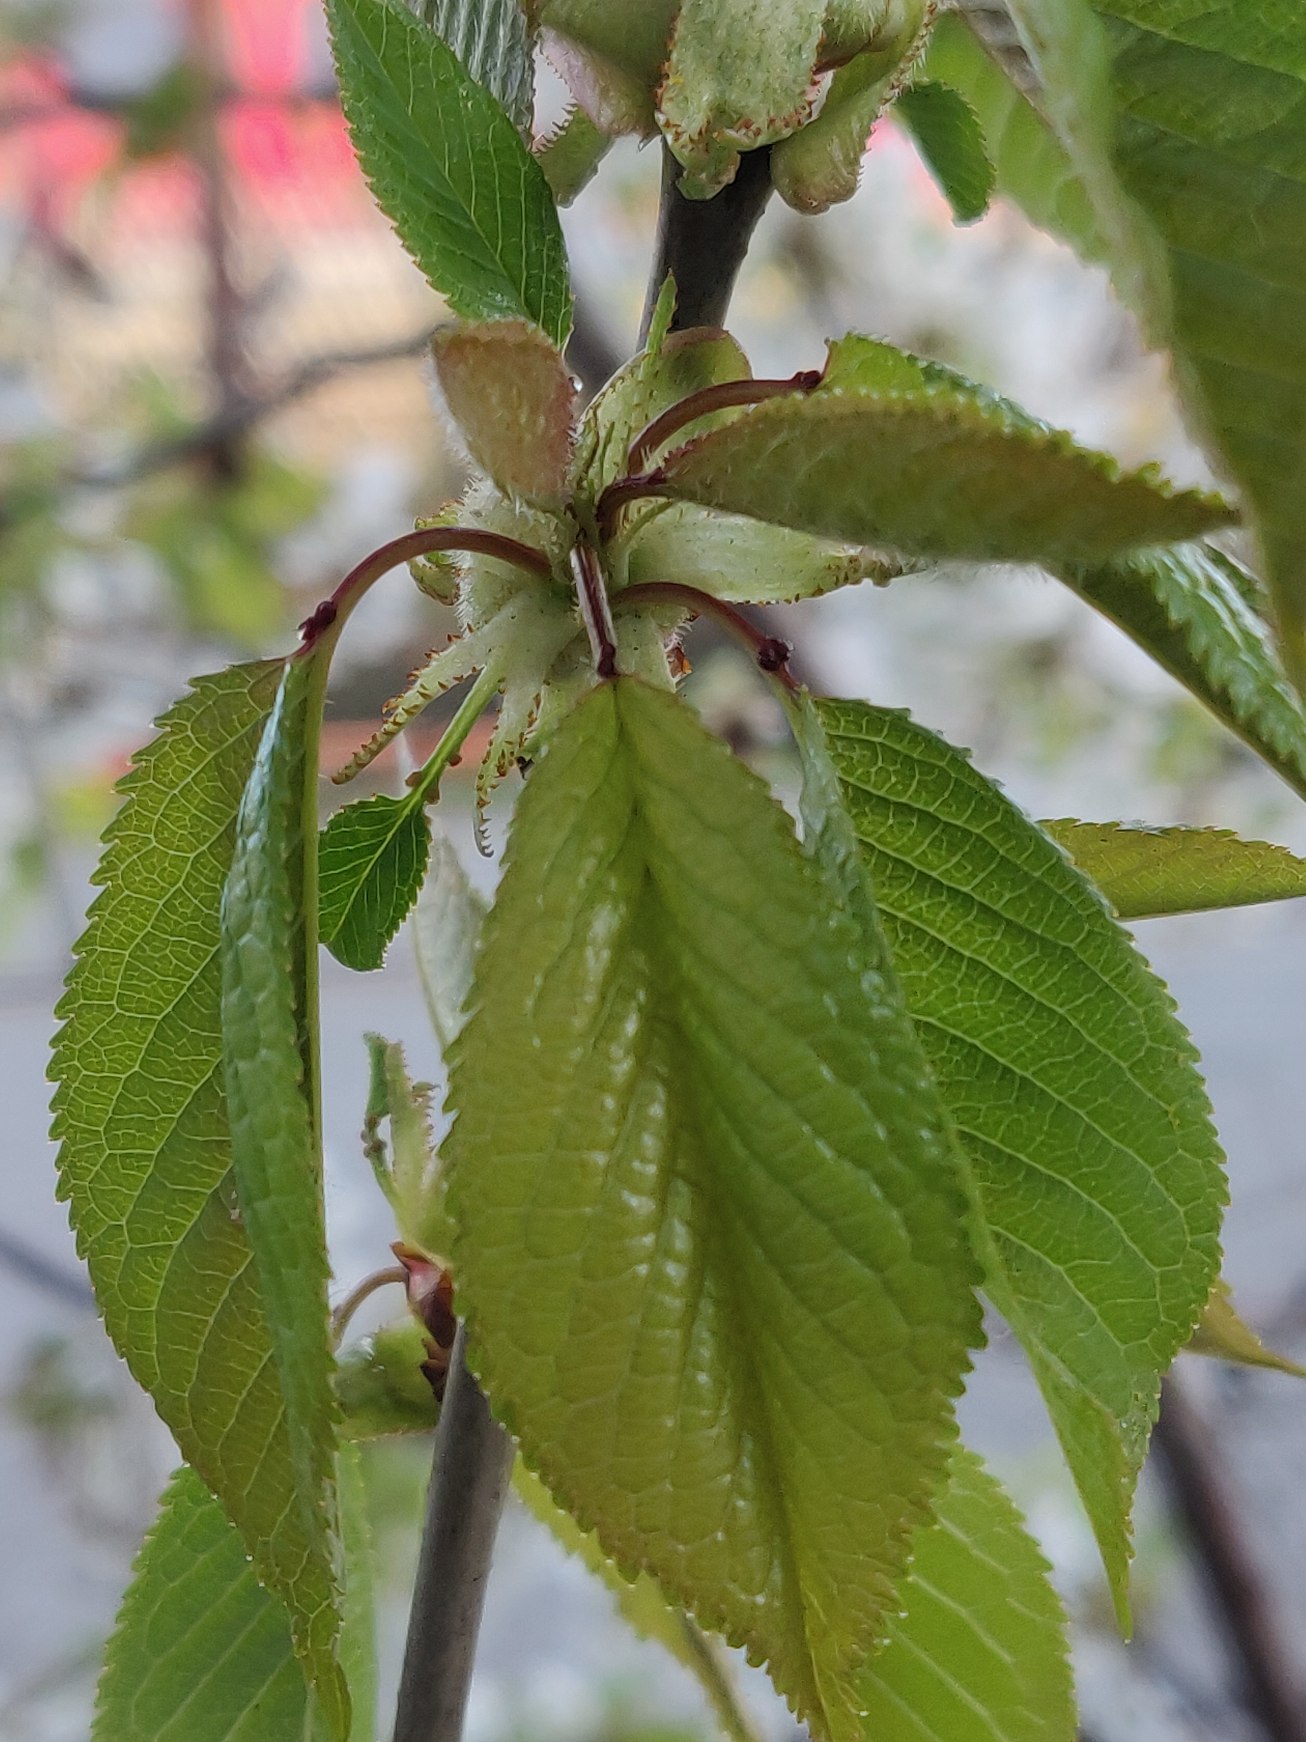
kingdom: Plantae
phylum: Tracheophyta
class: Magnoliopsida
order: Rosales
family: Rosaceae
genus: Prunus
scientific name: Prunus avium
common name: Fugle-kirsebær
